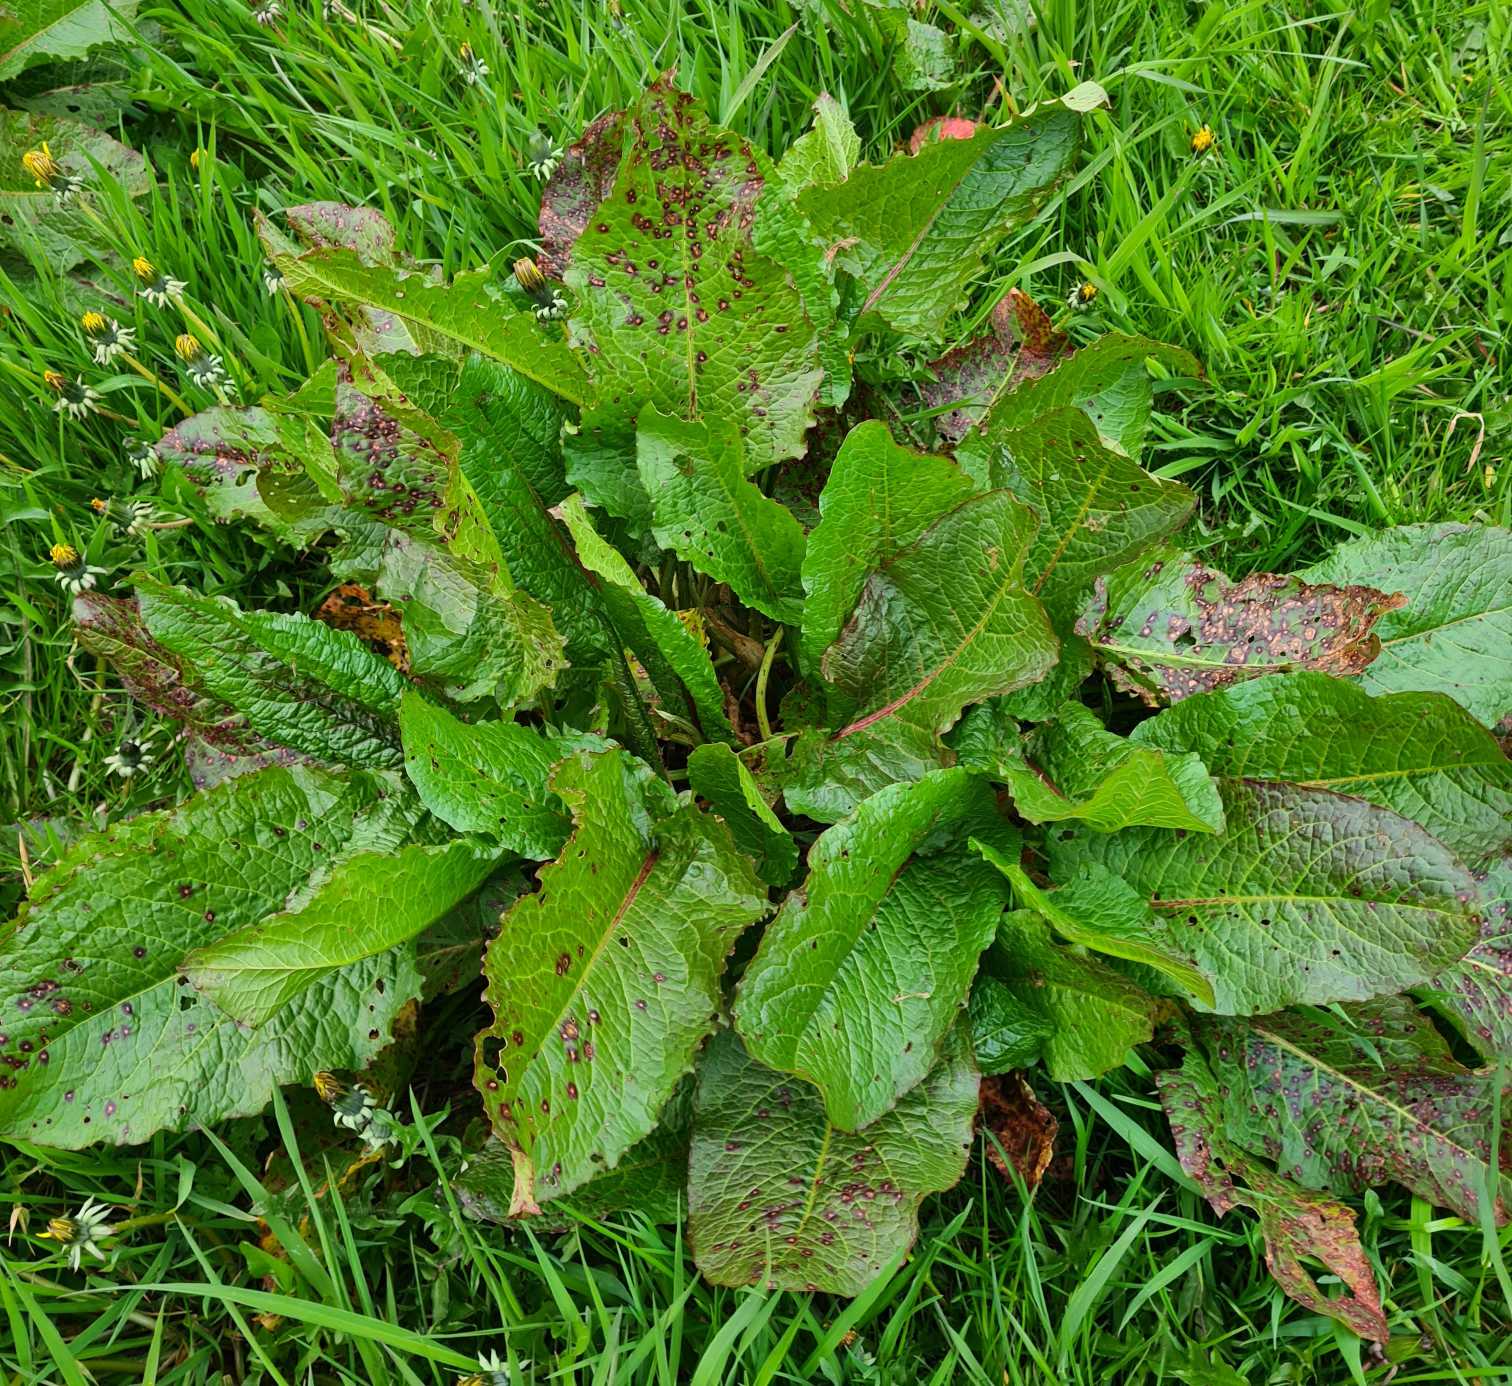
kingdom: Plantae
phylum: Tracheophyta
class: Magnoliopsida
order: Caryophyllales
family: Polygonaceae
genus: Rumex
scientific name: Rumex obtusifolius
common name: Butbladet skræppe
